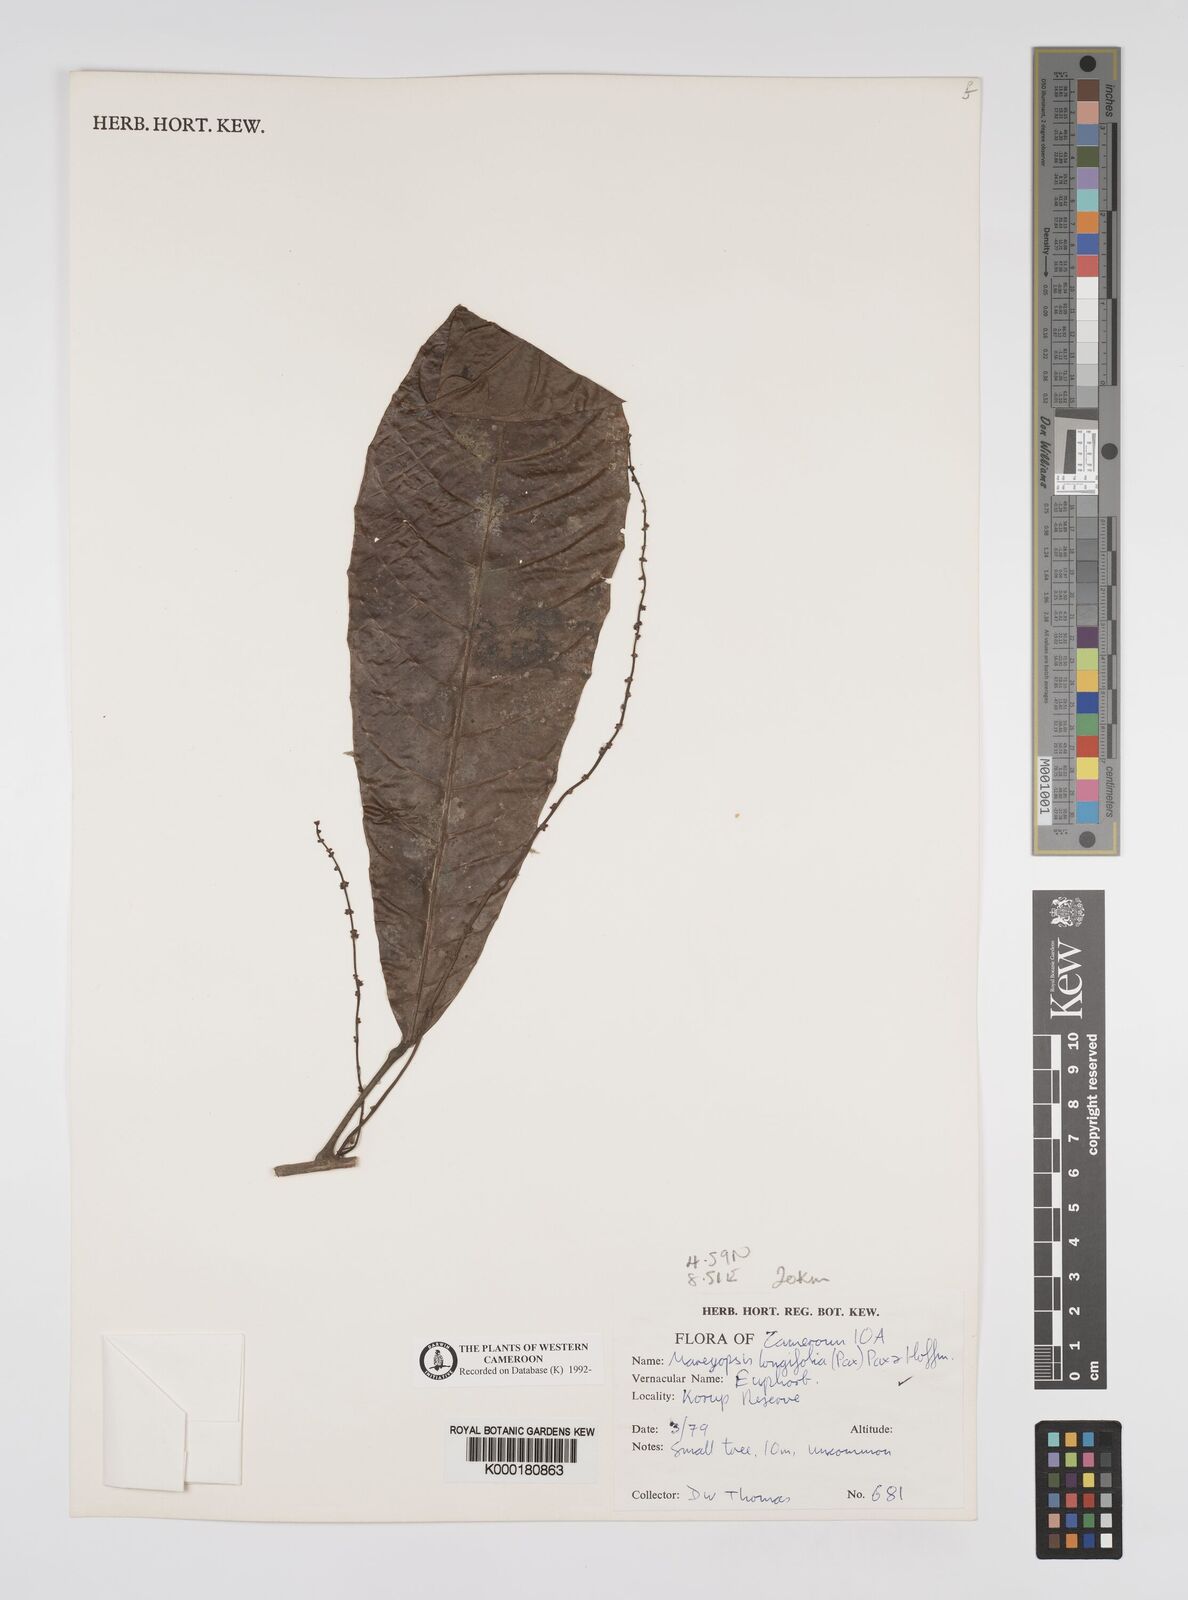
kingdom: Plantae
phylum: Tracheophyta
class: Magnoliopsida
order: Malpighiales
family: Euphorbiaceae
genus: Mareyopsis
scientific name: Mareyopsis longifolia
